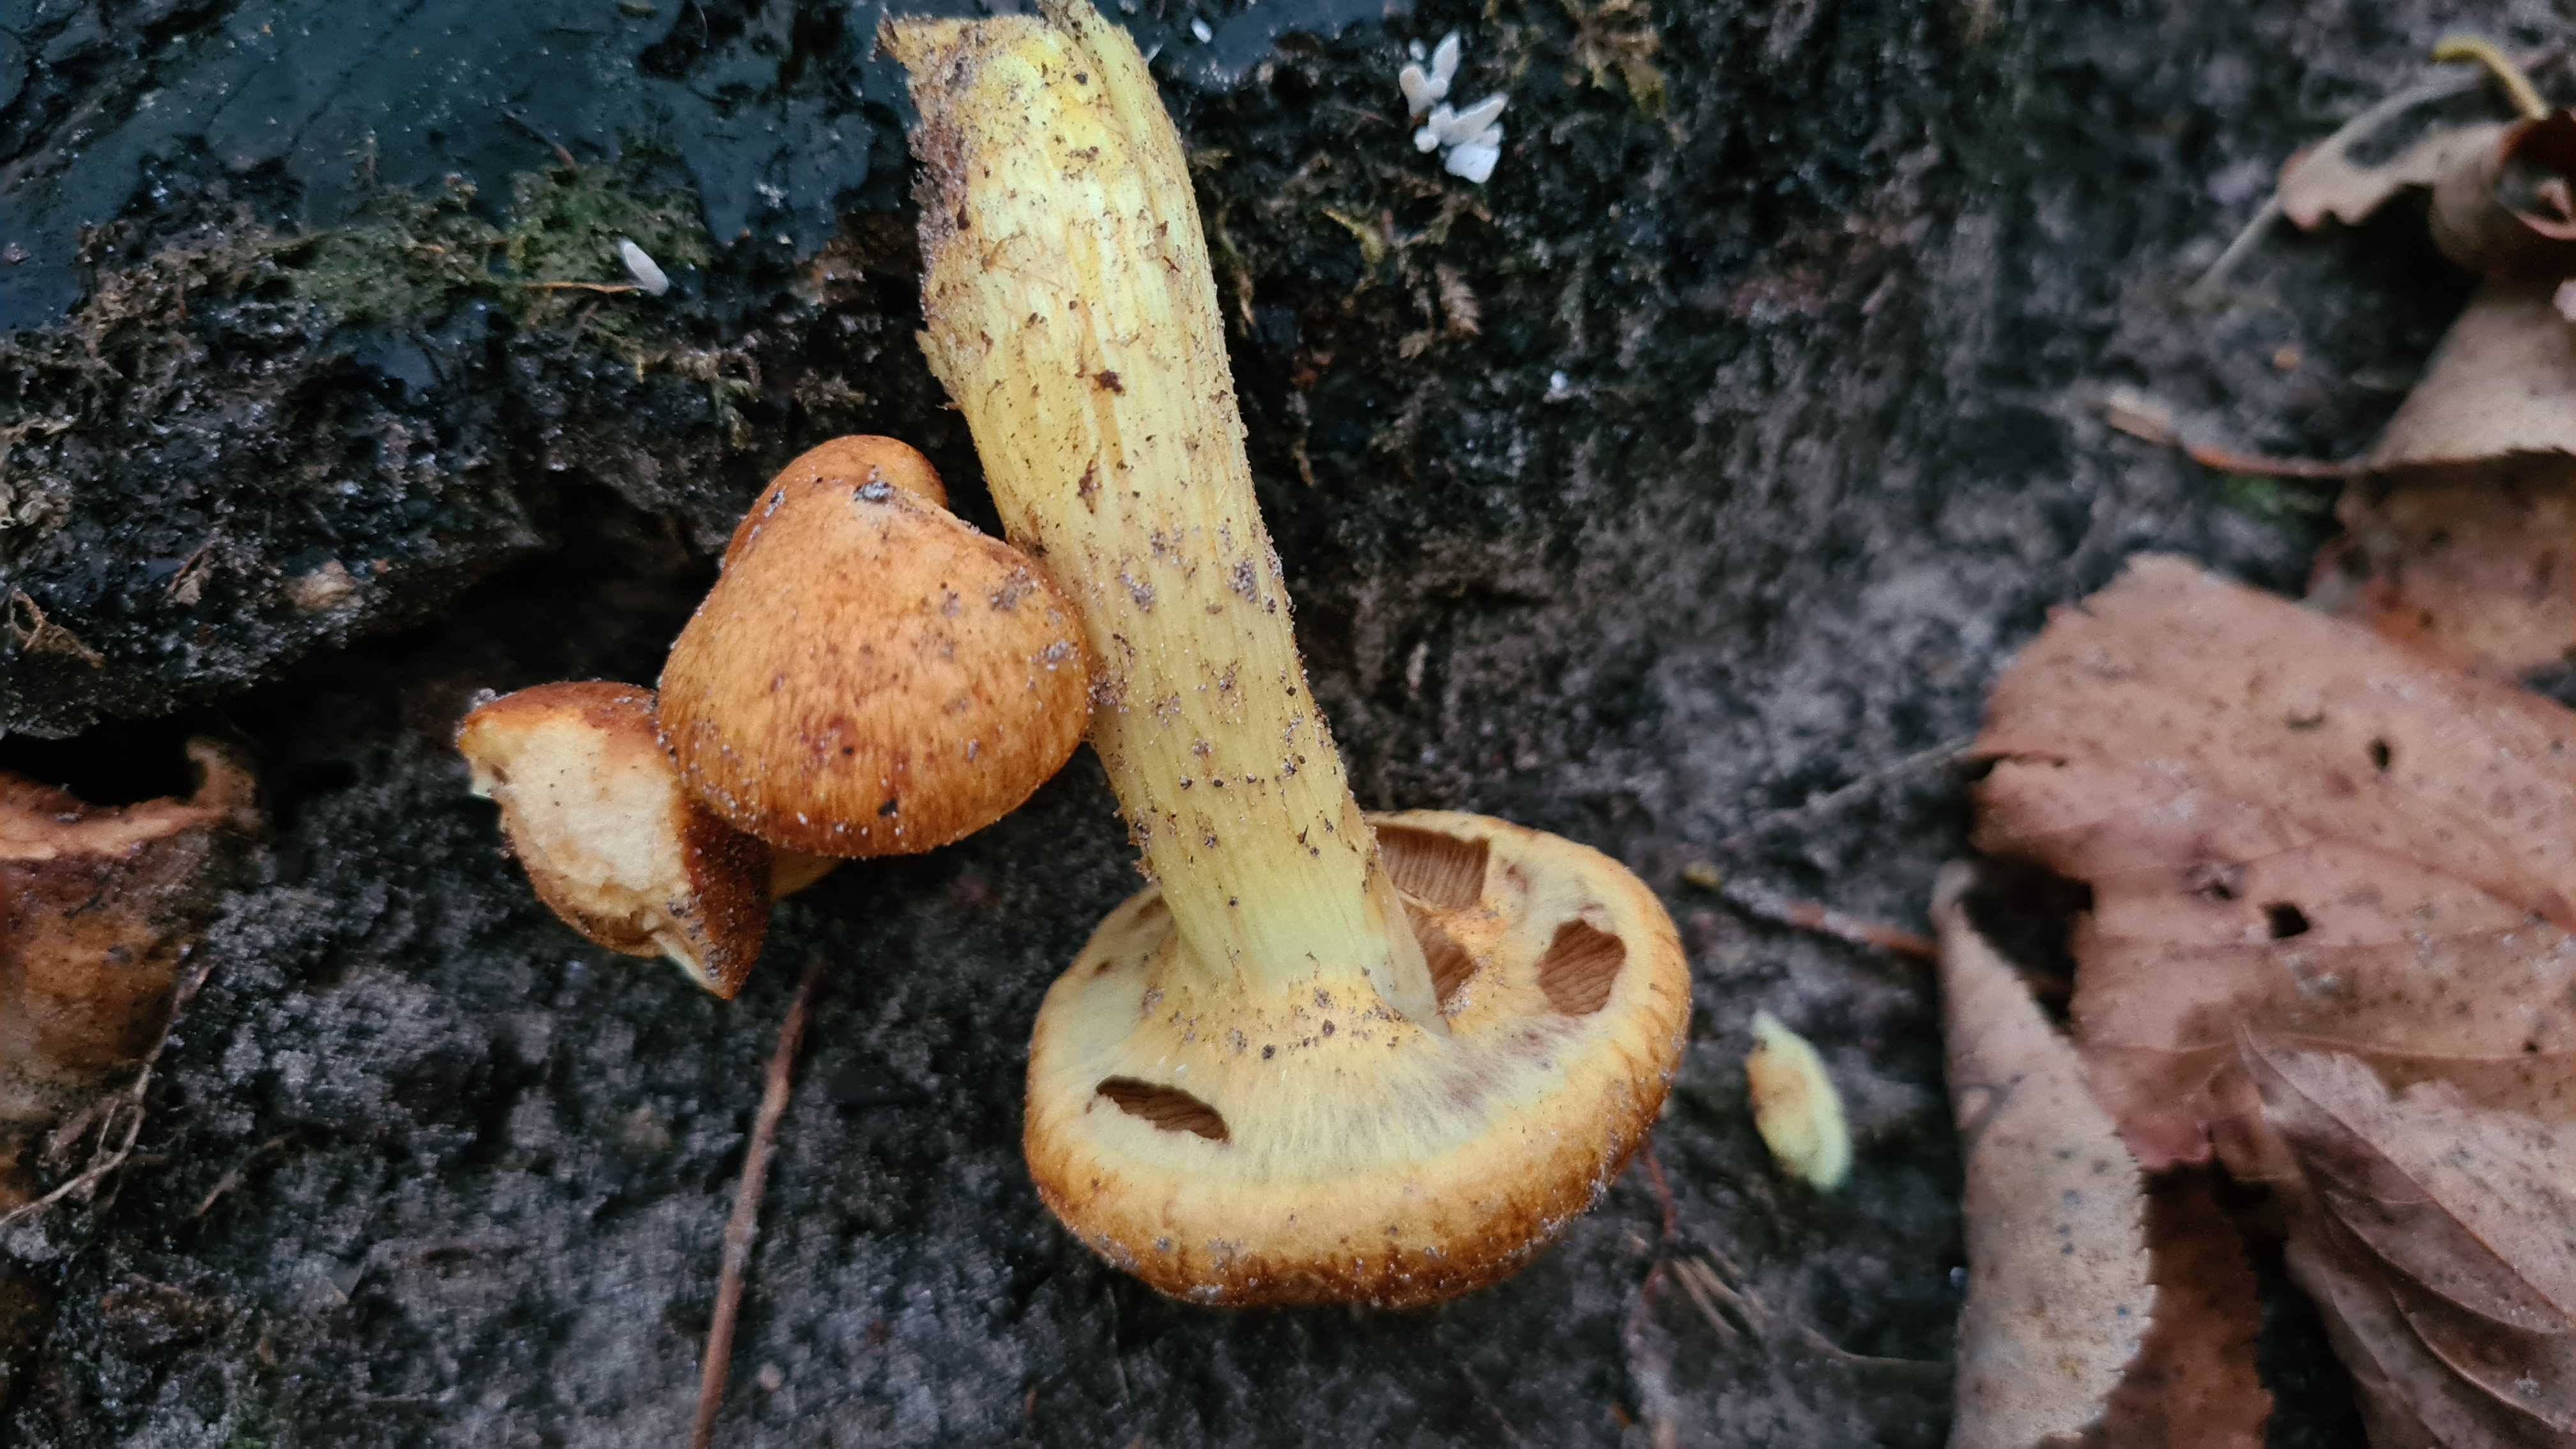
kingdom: Fungi
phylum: Basidiomycota
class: Agaricomycetes
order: Agaricales
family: Hymenogastraceae
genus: Gymnopilus
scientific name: Gymnopilus spectabilis
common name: fibret flammehat
